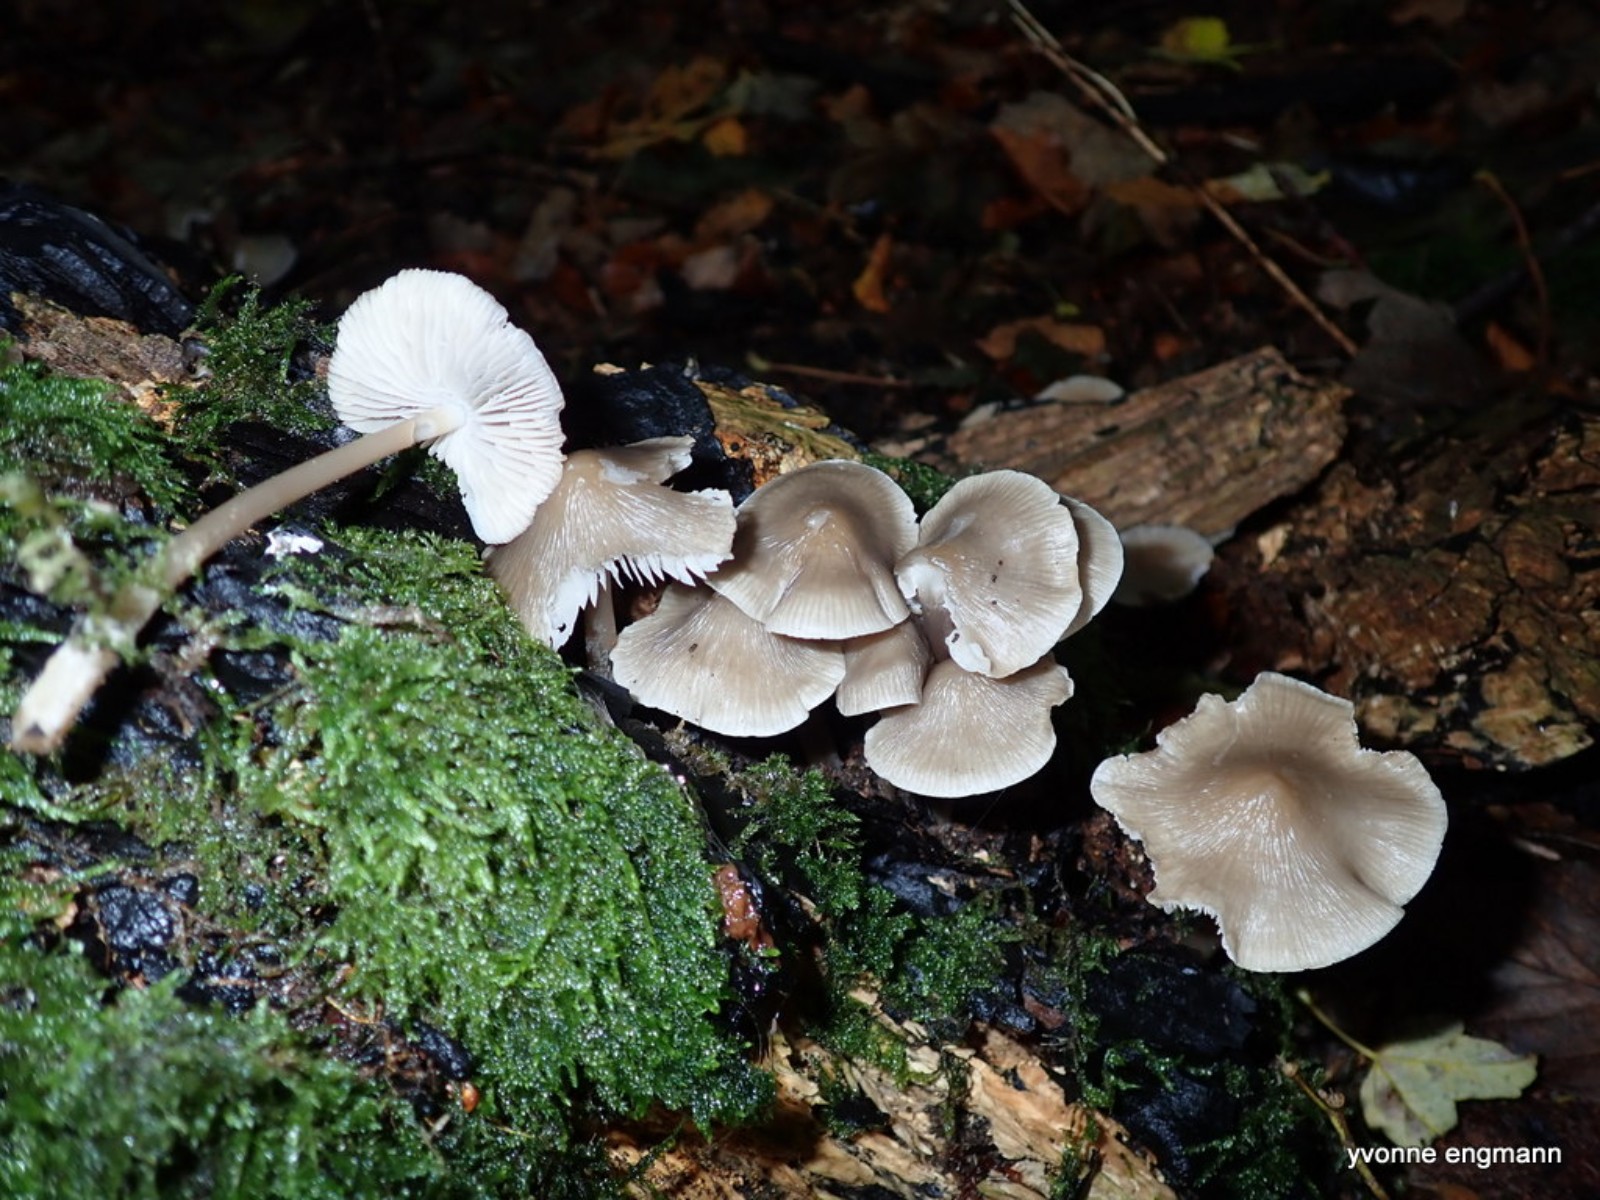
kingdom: Fungi
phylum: Basidiomycota
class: Agaricomycetes
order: Agaricales
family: Mycenaceae
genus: Mycena
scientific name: Mycena galericulata
